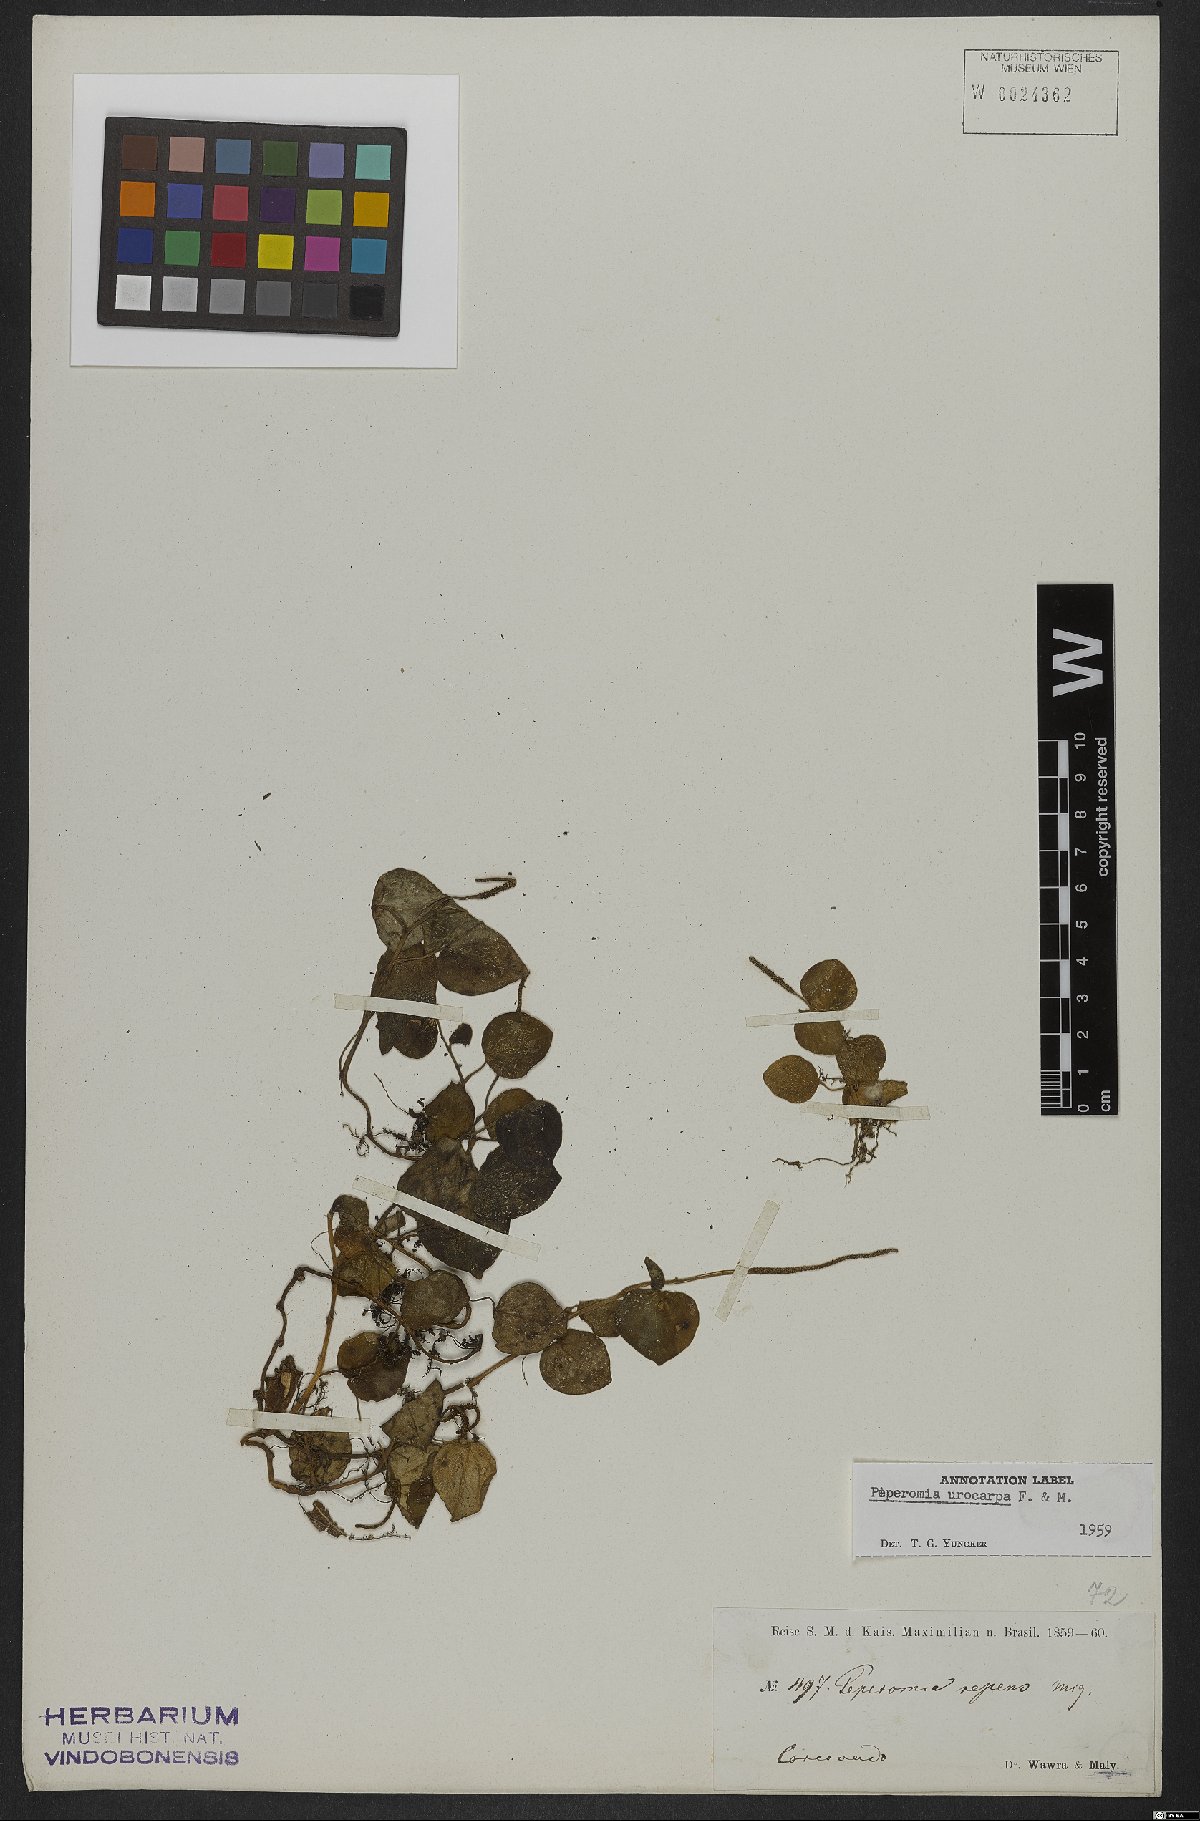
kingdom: Plantae
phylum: Tracheophyta
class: Magnoliopsida
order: Piperales
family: Piperaceae
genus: Peperomia
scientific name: Peperomia urocarpa
